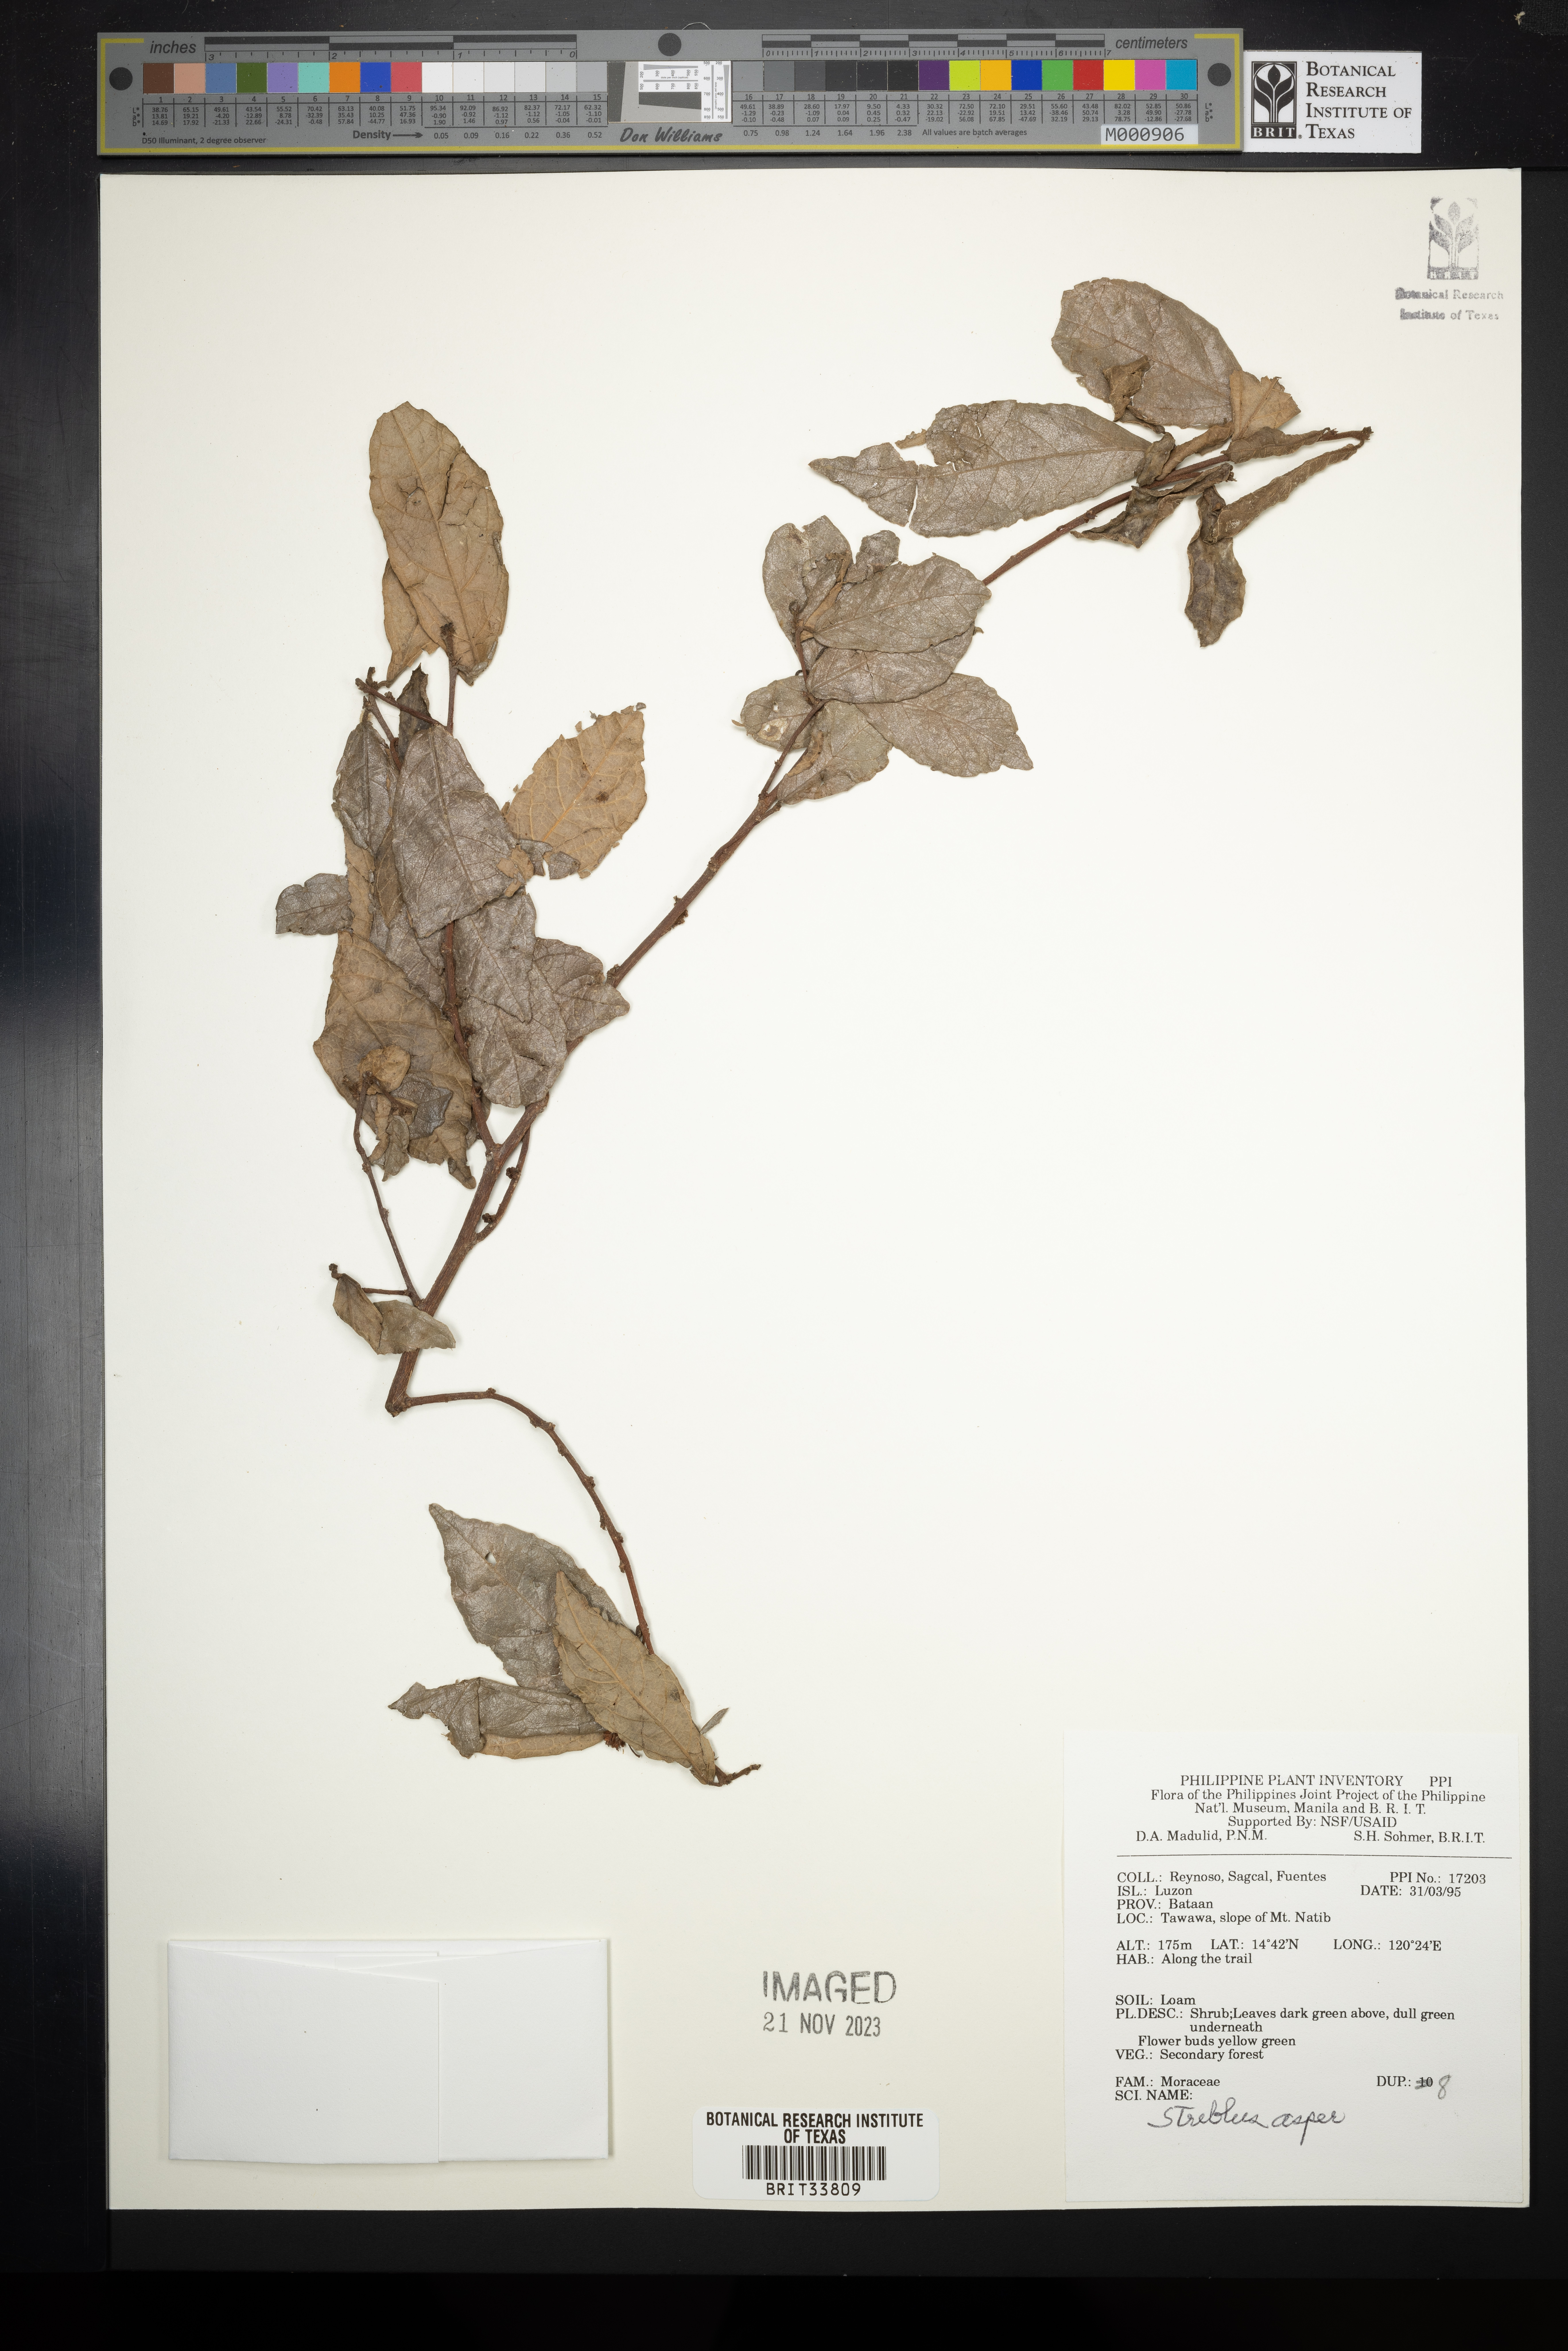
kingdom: Plantae
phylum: Tracheophyta
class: Magnoliopsida
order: Rosales
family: Moraceae
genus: Streblus
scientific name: Streblus asper
